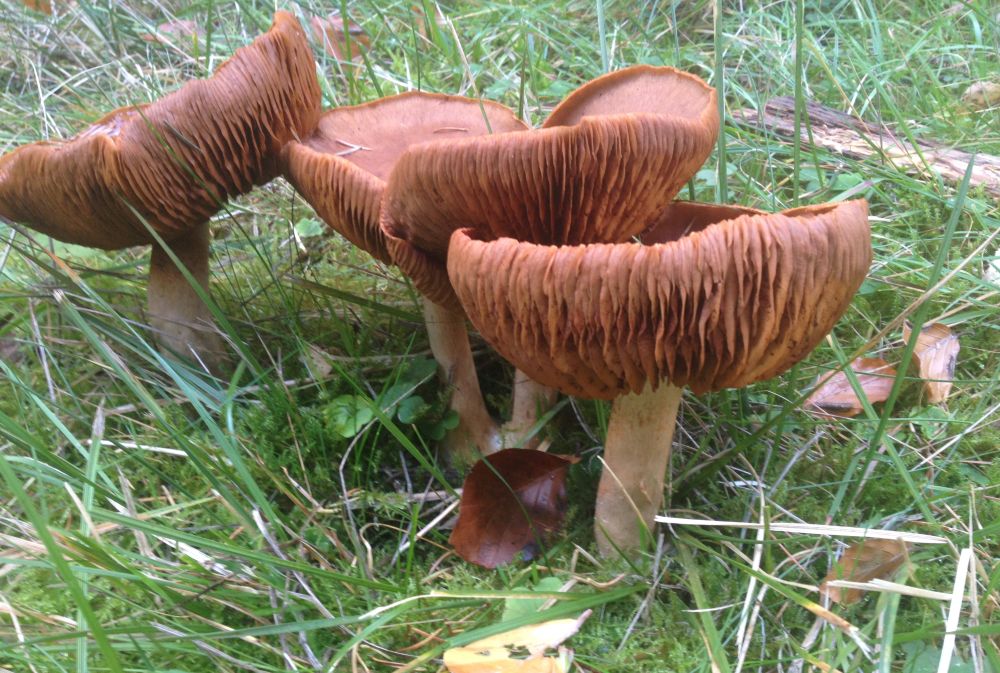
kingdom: Fungi
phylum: Basidiomycota
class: Agaricomycetes
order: Agaricales
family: Cortinariaceae
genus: Cortinarius
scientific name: Cortinarius
